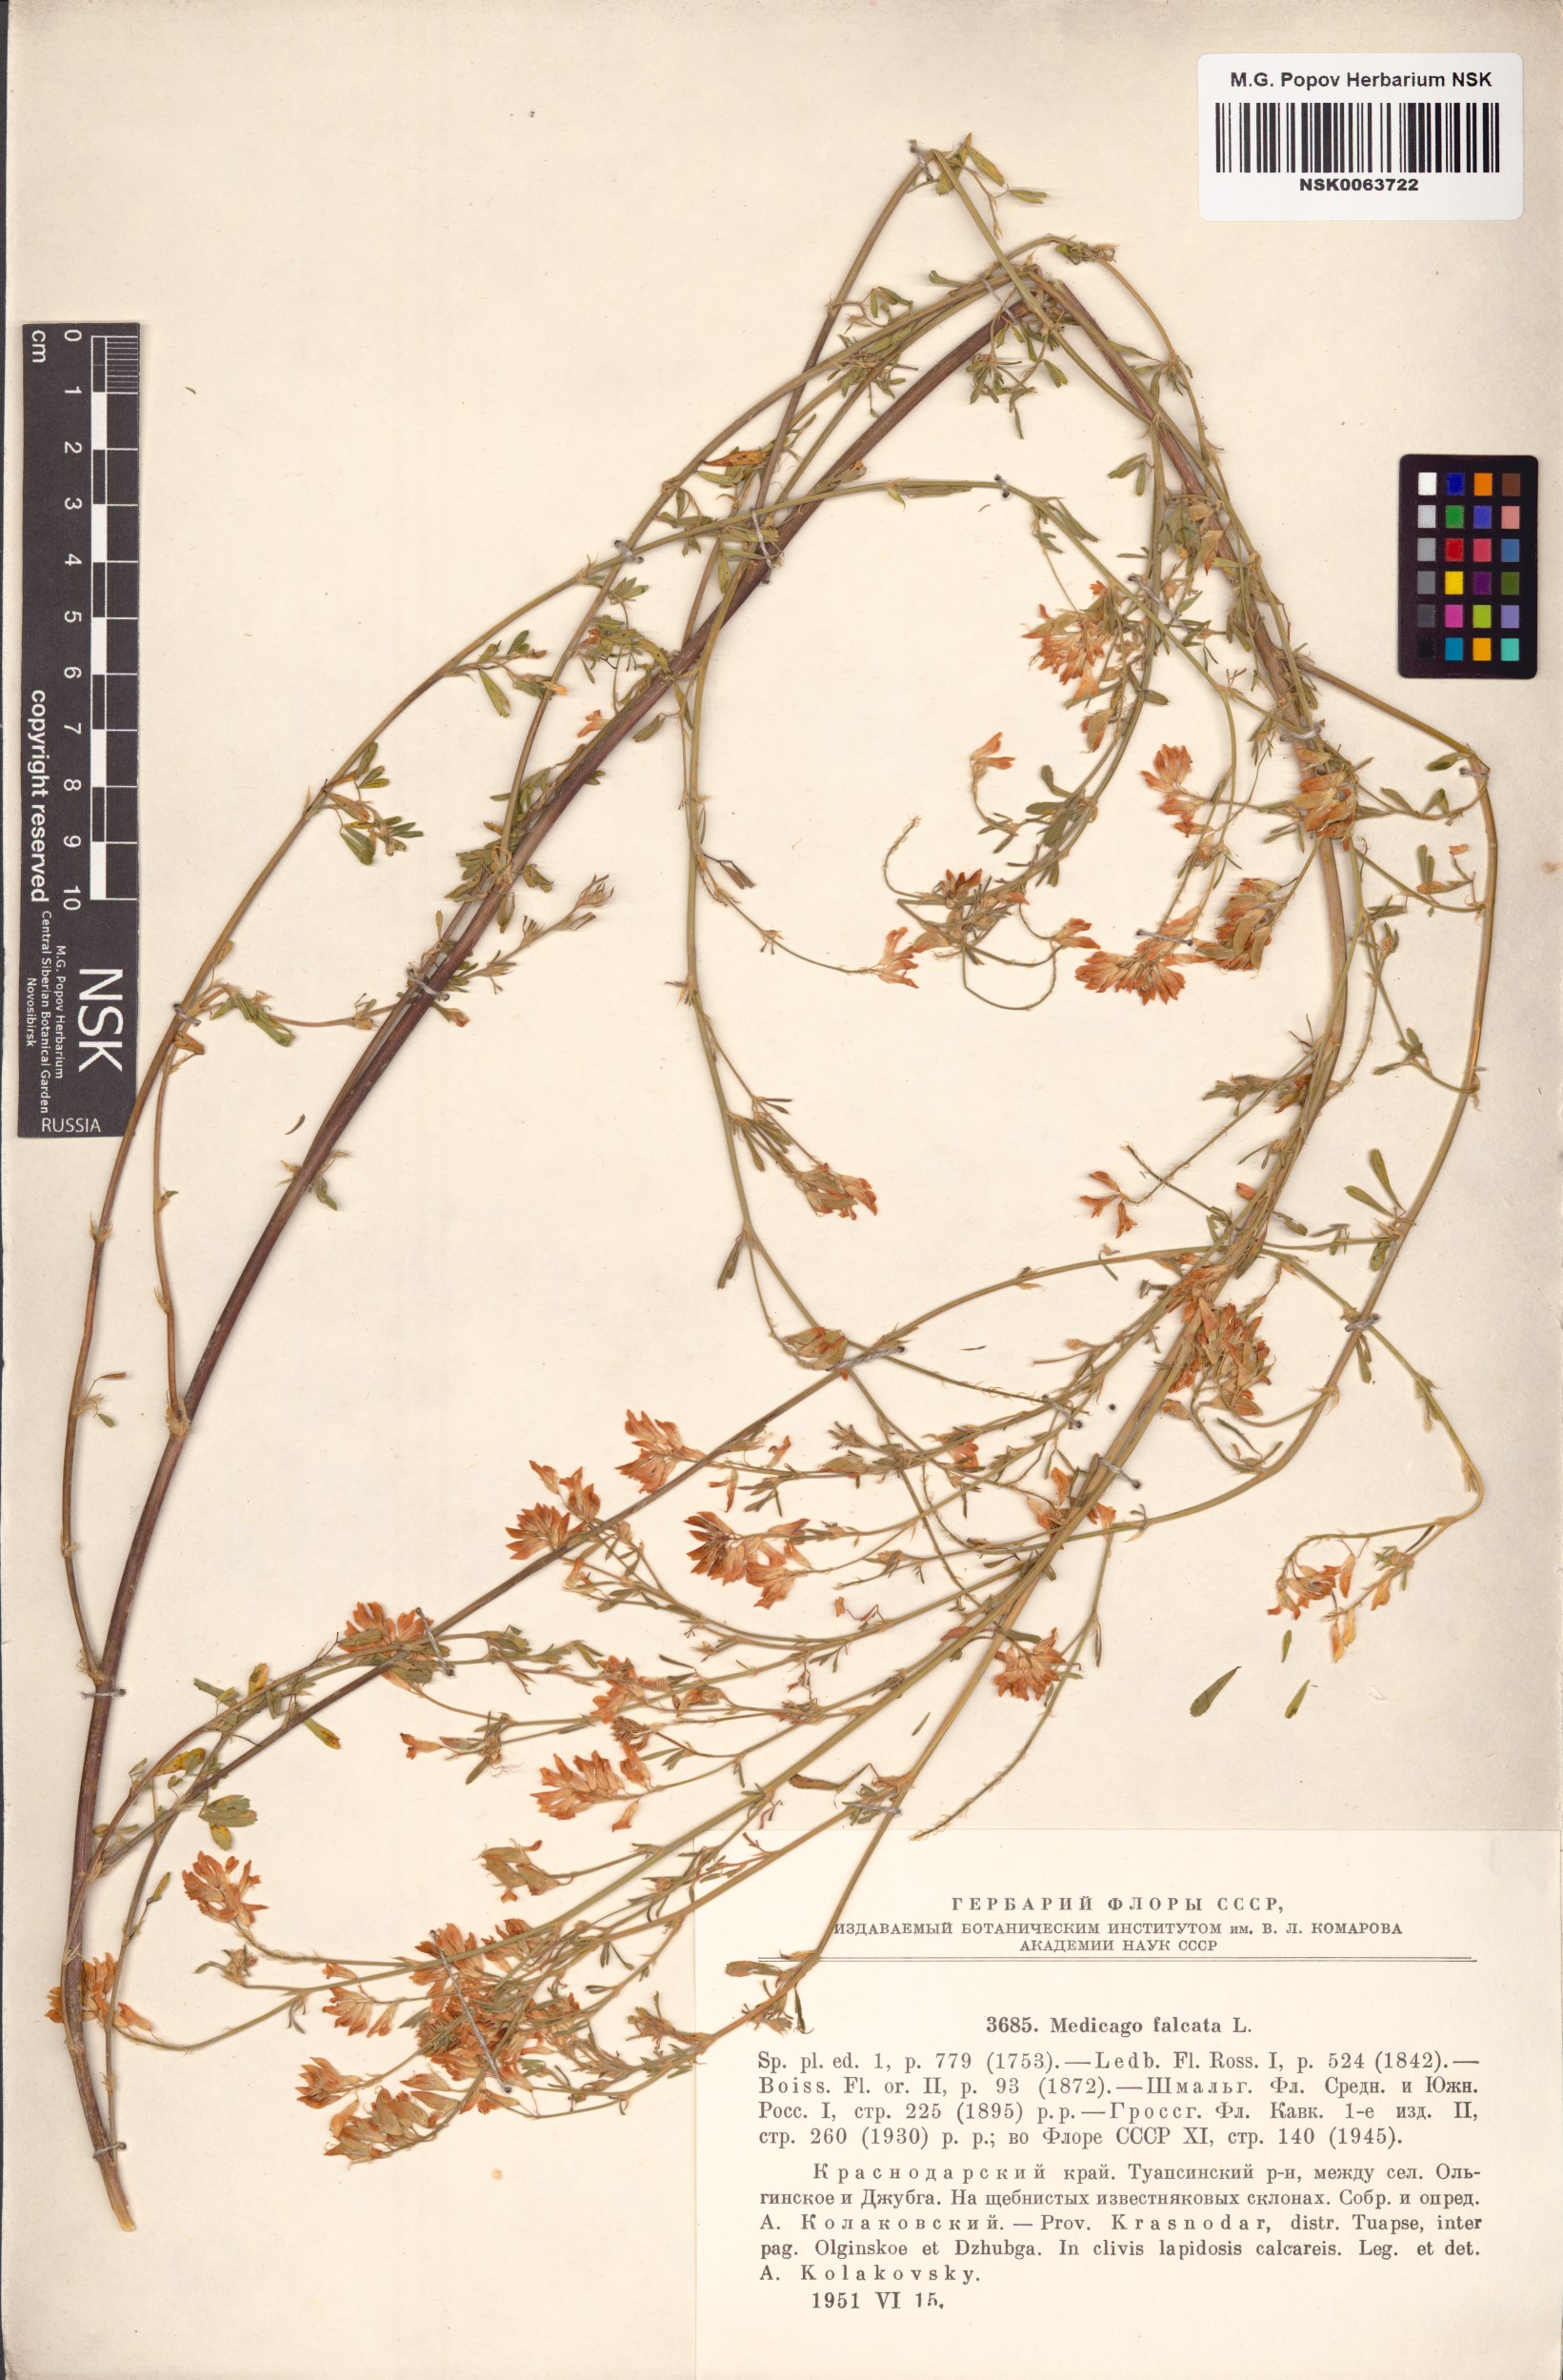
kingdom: Plantae
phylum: Tracheophyta
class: Magnoliopsida
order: Fabales
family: Fabaceae
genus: Medicago
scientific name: Medicago falcata
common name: Sickle medick
